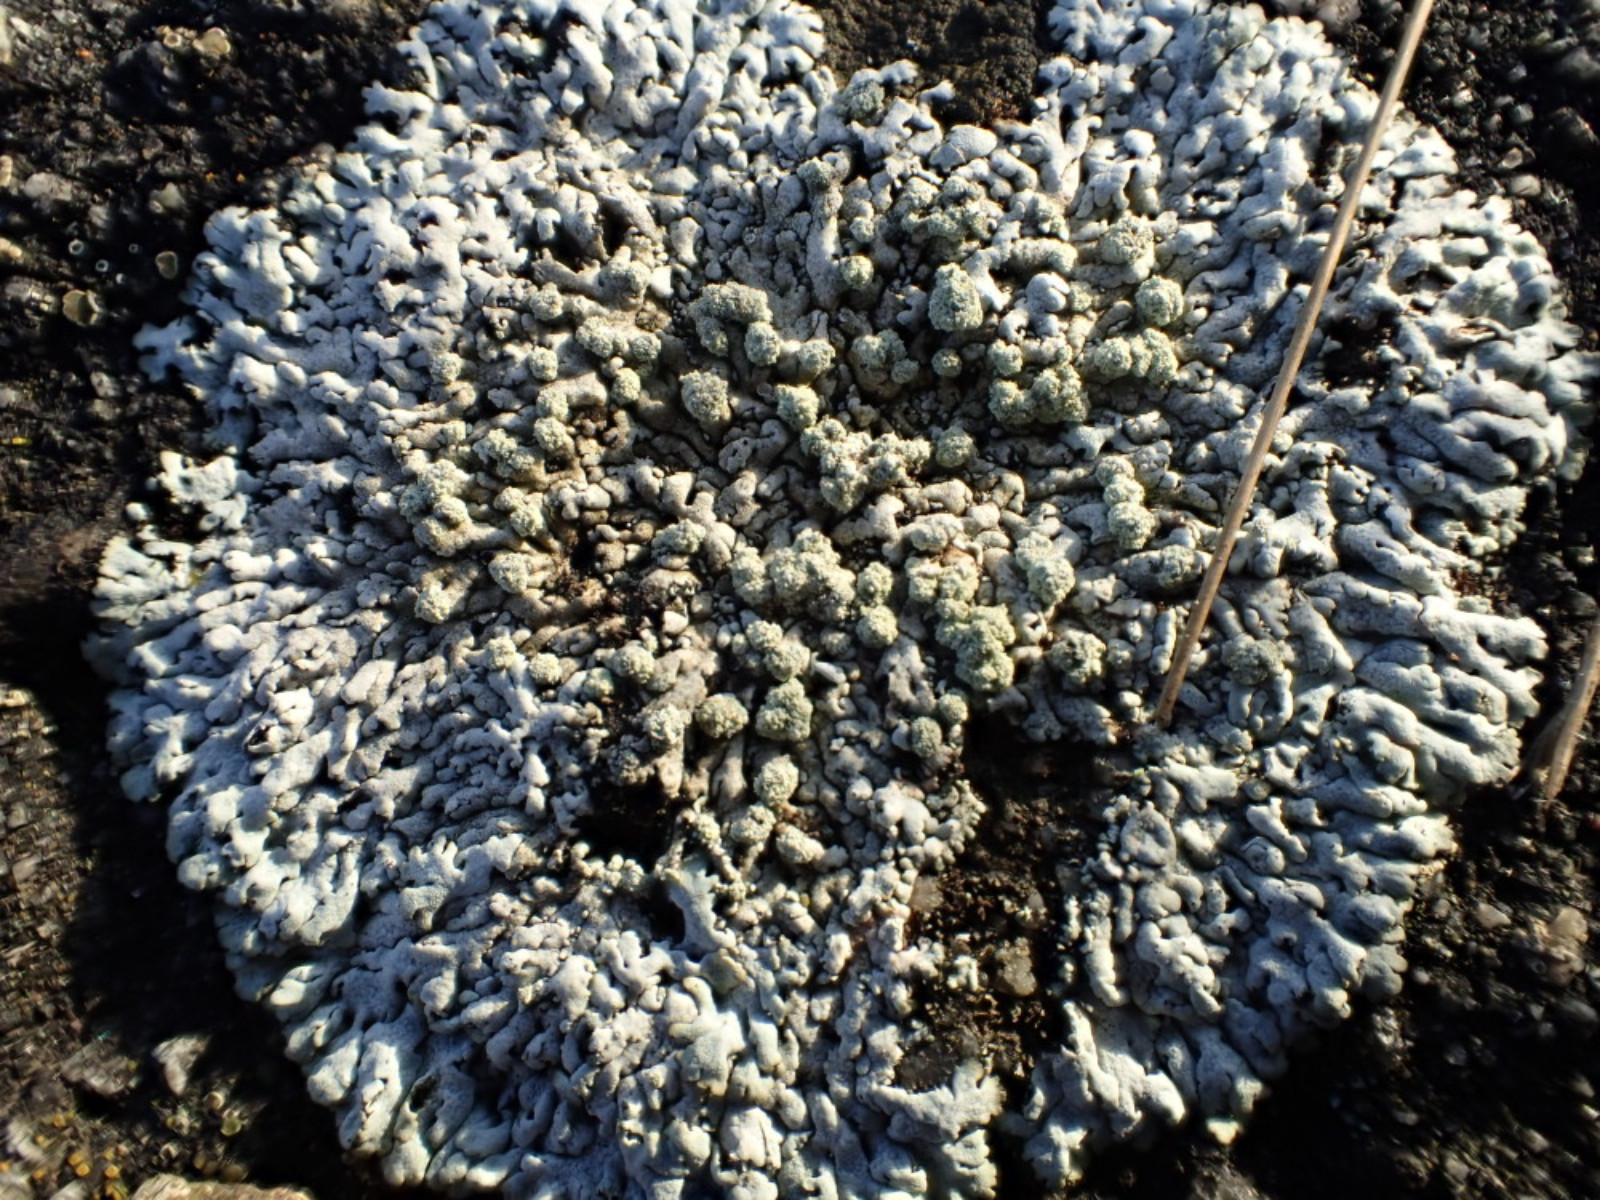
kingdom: Fungi
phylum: Ascomycota
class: Lecanoromycetes
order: Caliciales
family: Physciaceae
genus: Physcia
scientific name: Physcia caesia
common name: blågrå rosetlav
